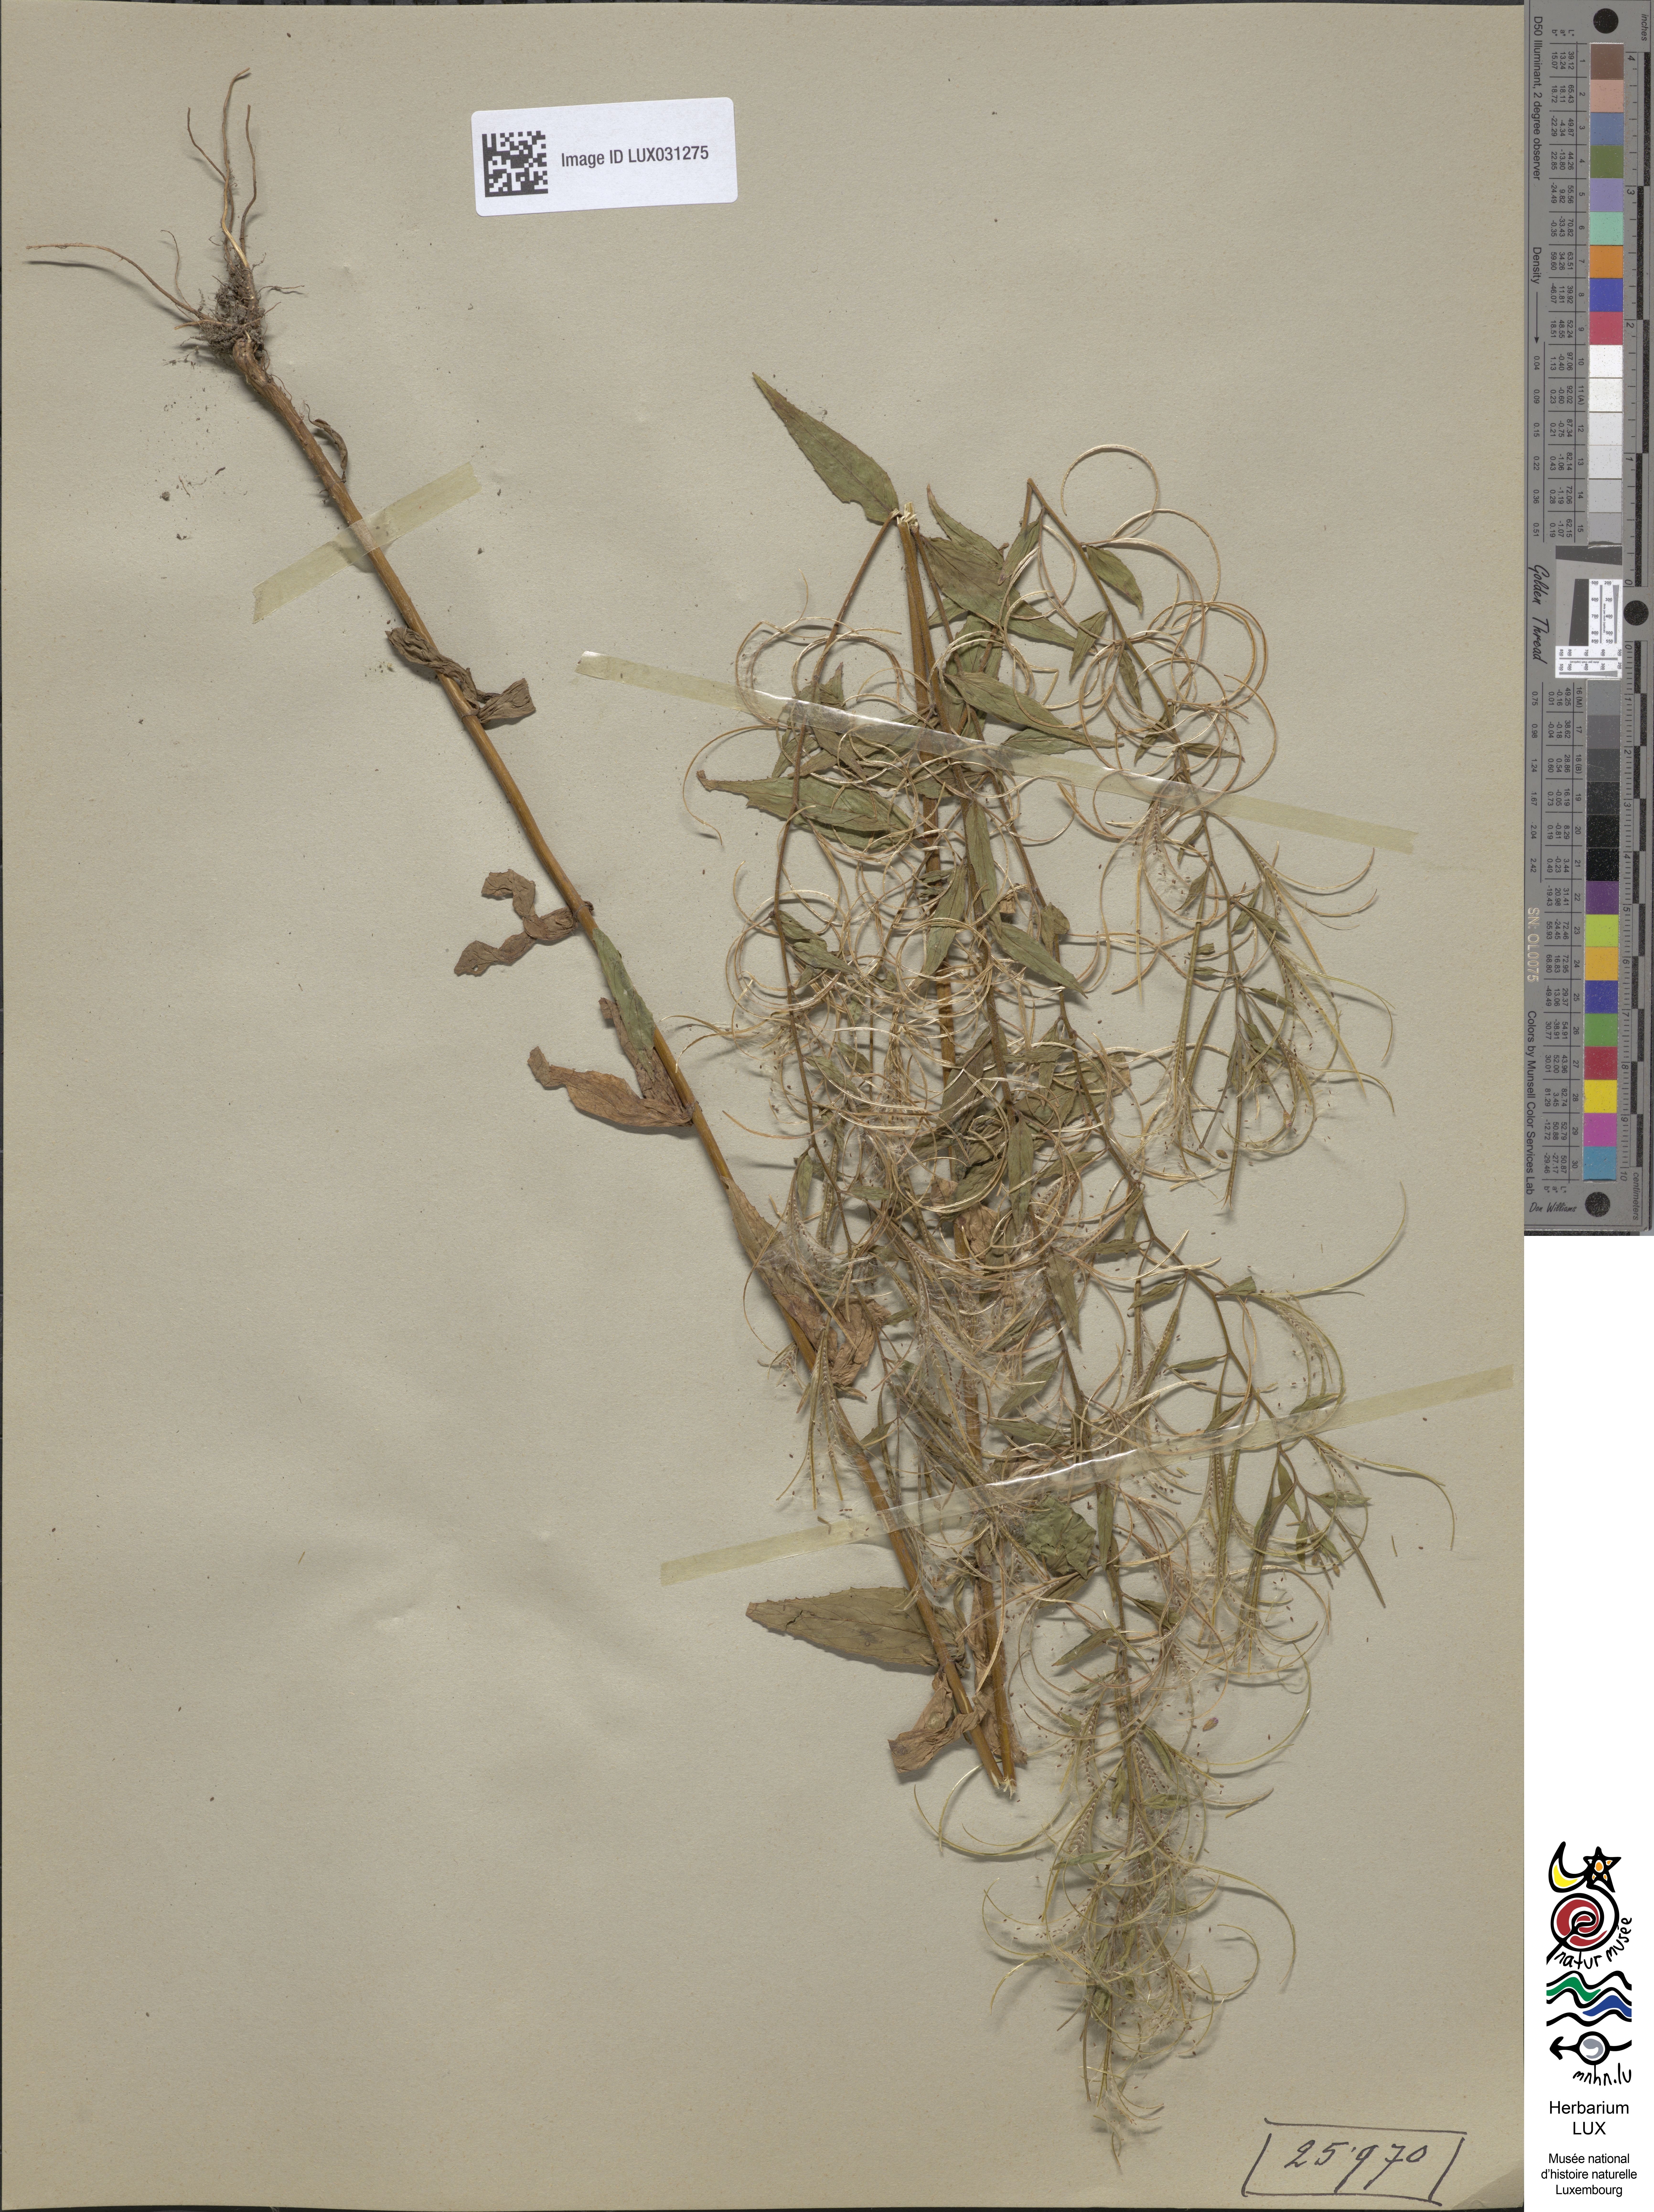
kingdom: Plantae
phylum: Tracheophyta
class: Magnoliopsida
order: Myrtales
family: Onagraceae
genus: Epilobium
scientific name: Epilobium ciliatum
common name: American willowherb
